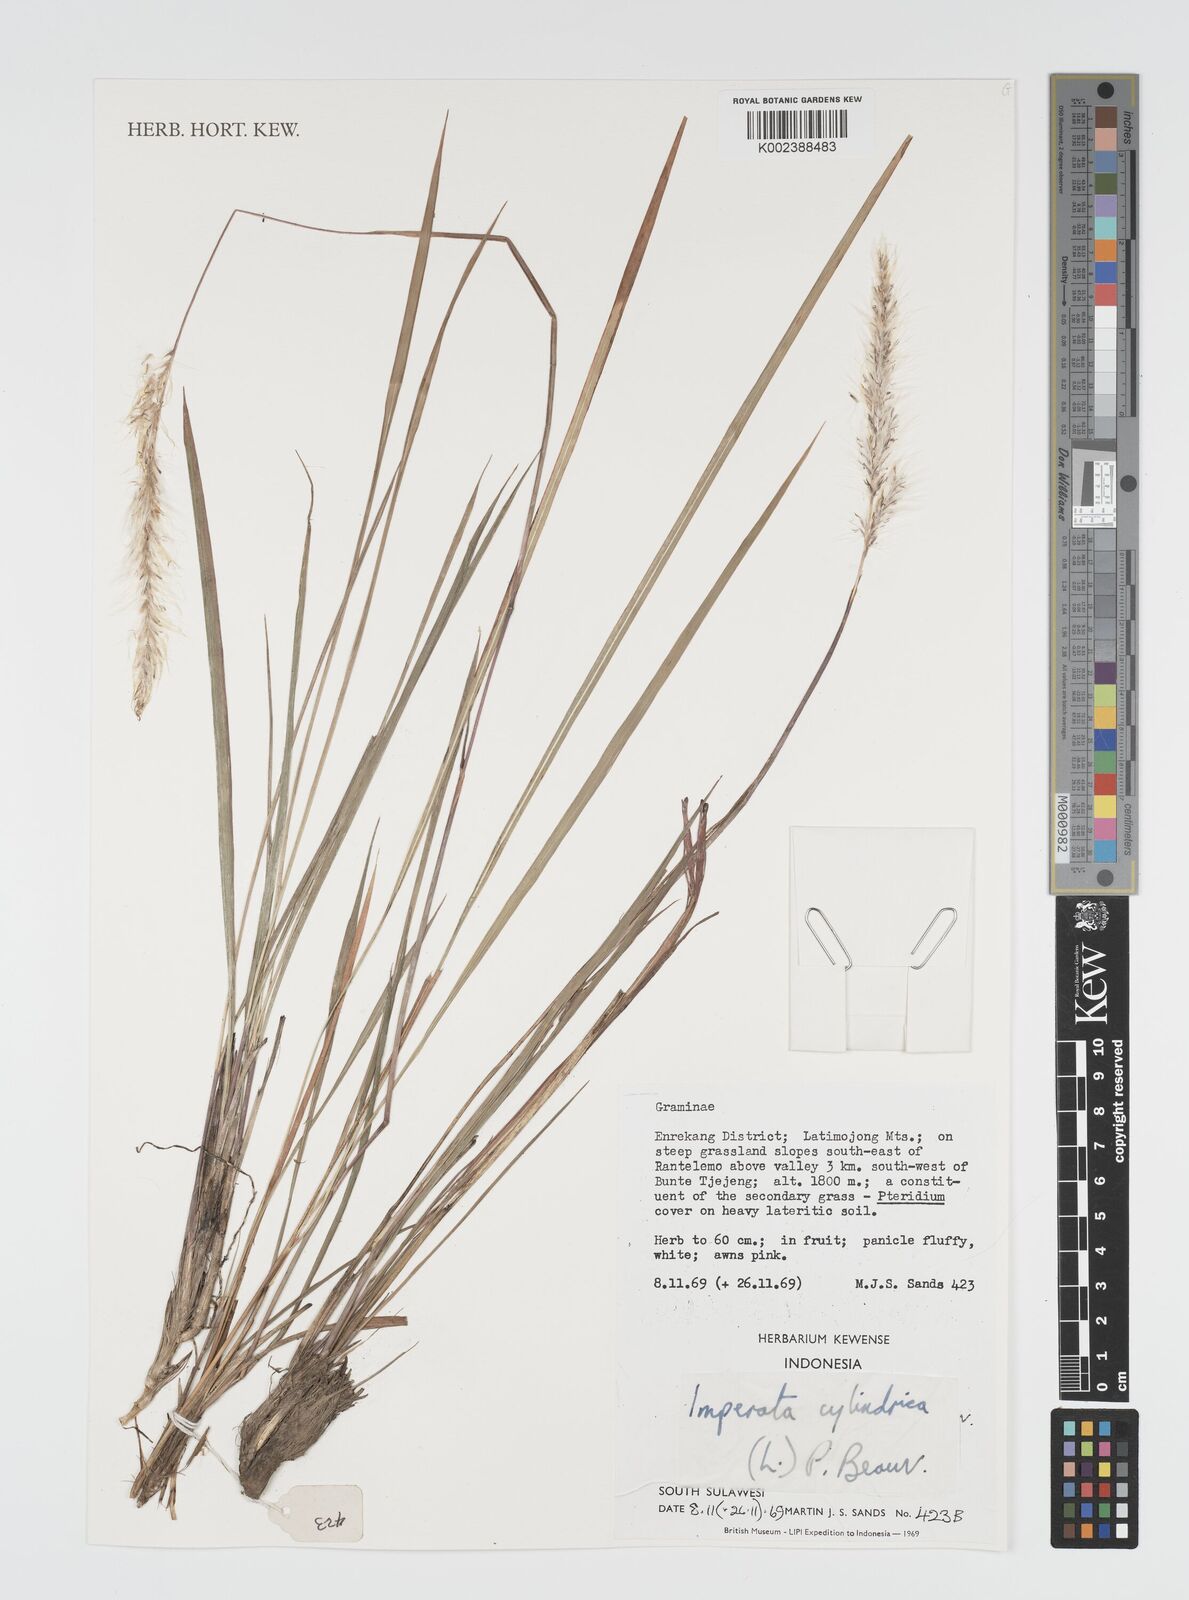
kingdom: Plantae
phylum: Tracheophyta
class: Liliopsida
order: Poales
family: Poaceae
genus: Imperata
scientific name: Imperata cylindrica
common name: Cogongrass
